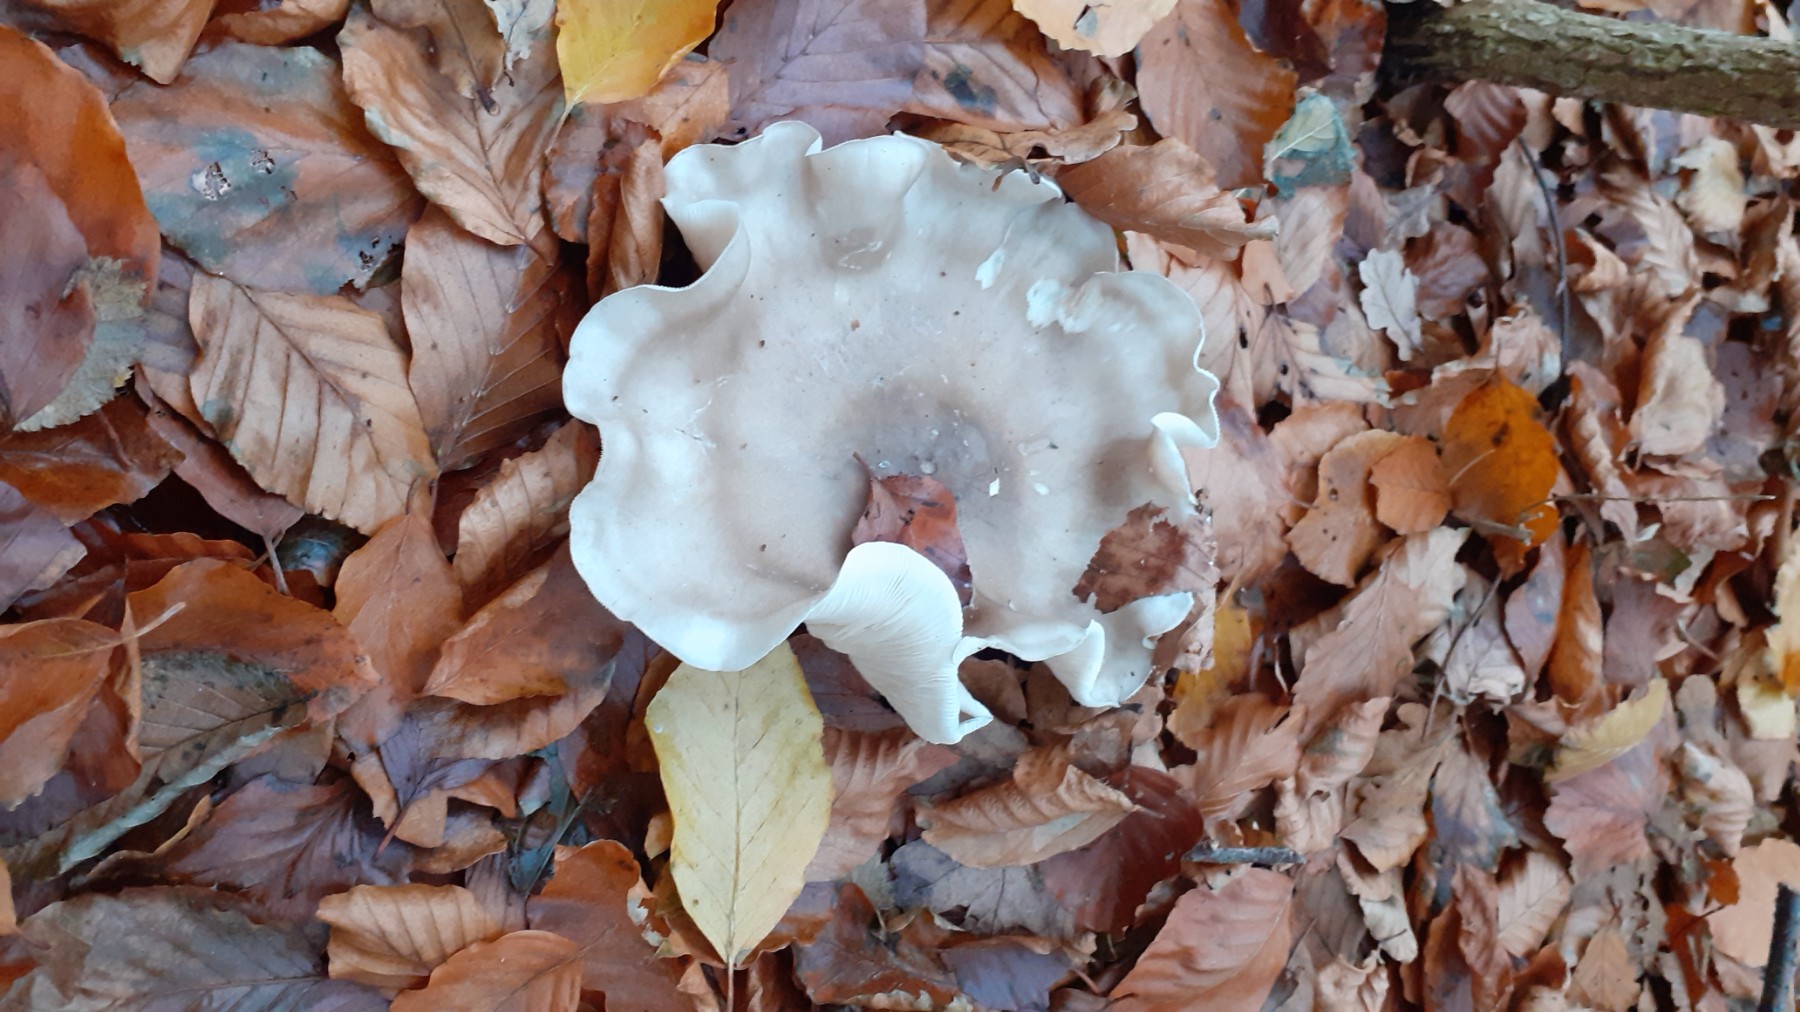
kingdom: Fungi
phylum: Basidiomycota
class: Agaricomycetes
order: Agaricales
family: Tricholomataceae
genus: Clitocybe
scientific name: Clitocybe nebularis
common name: tåge-tragthat
